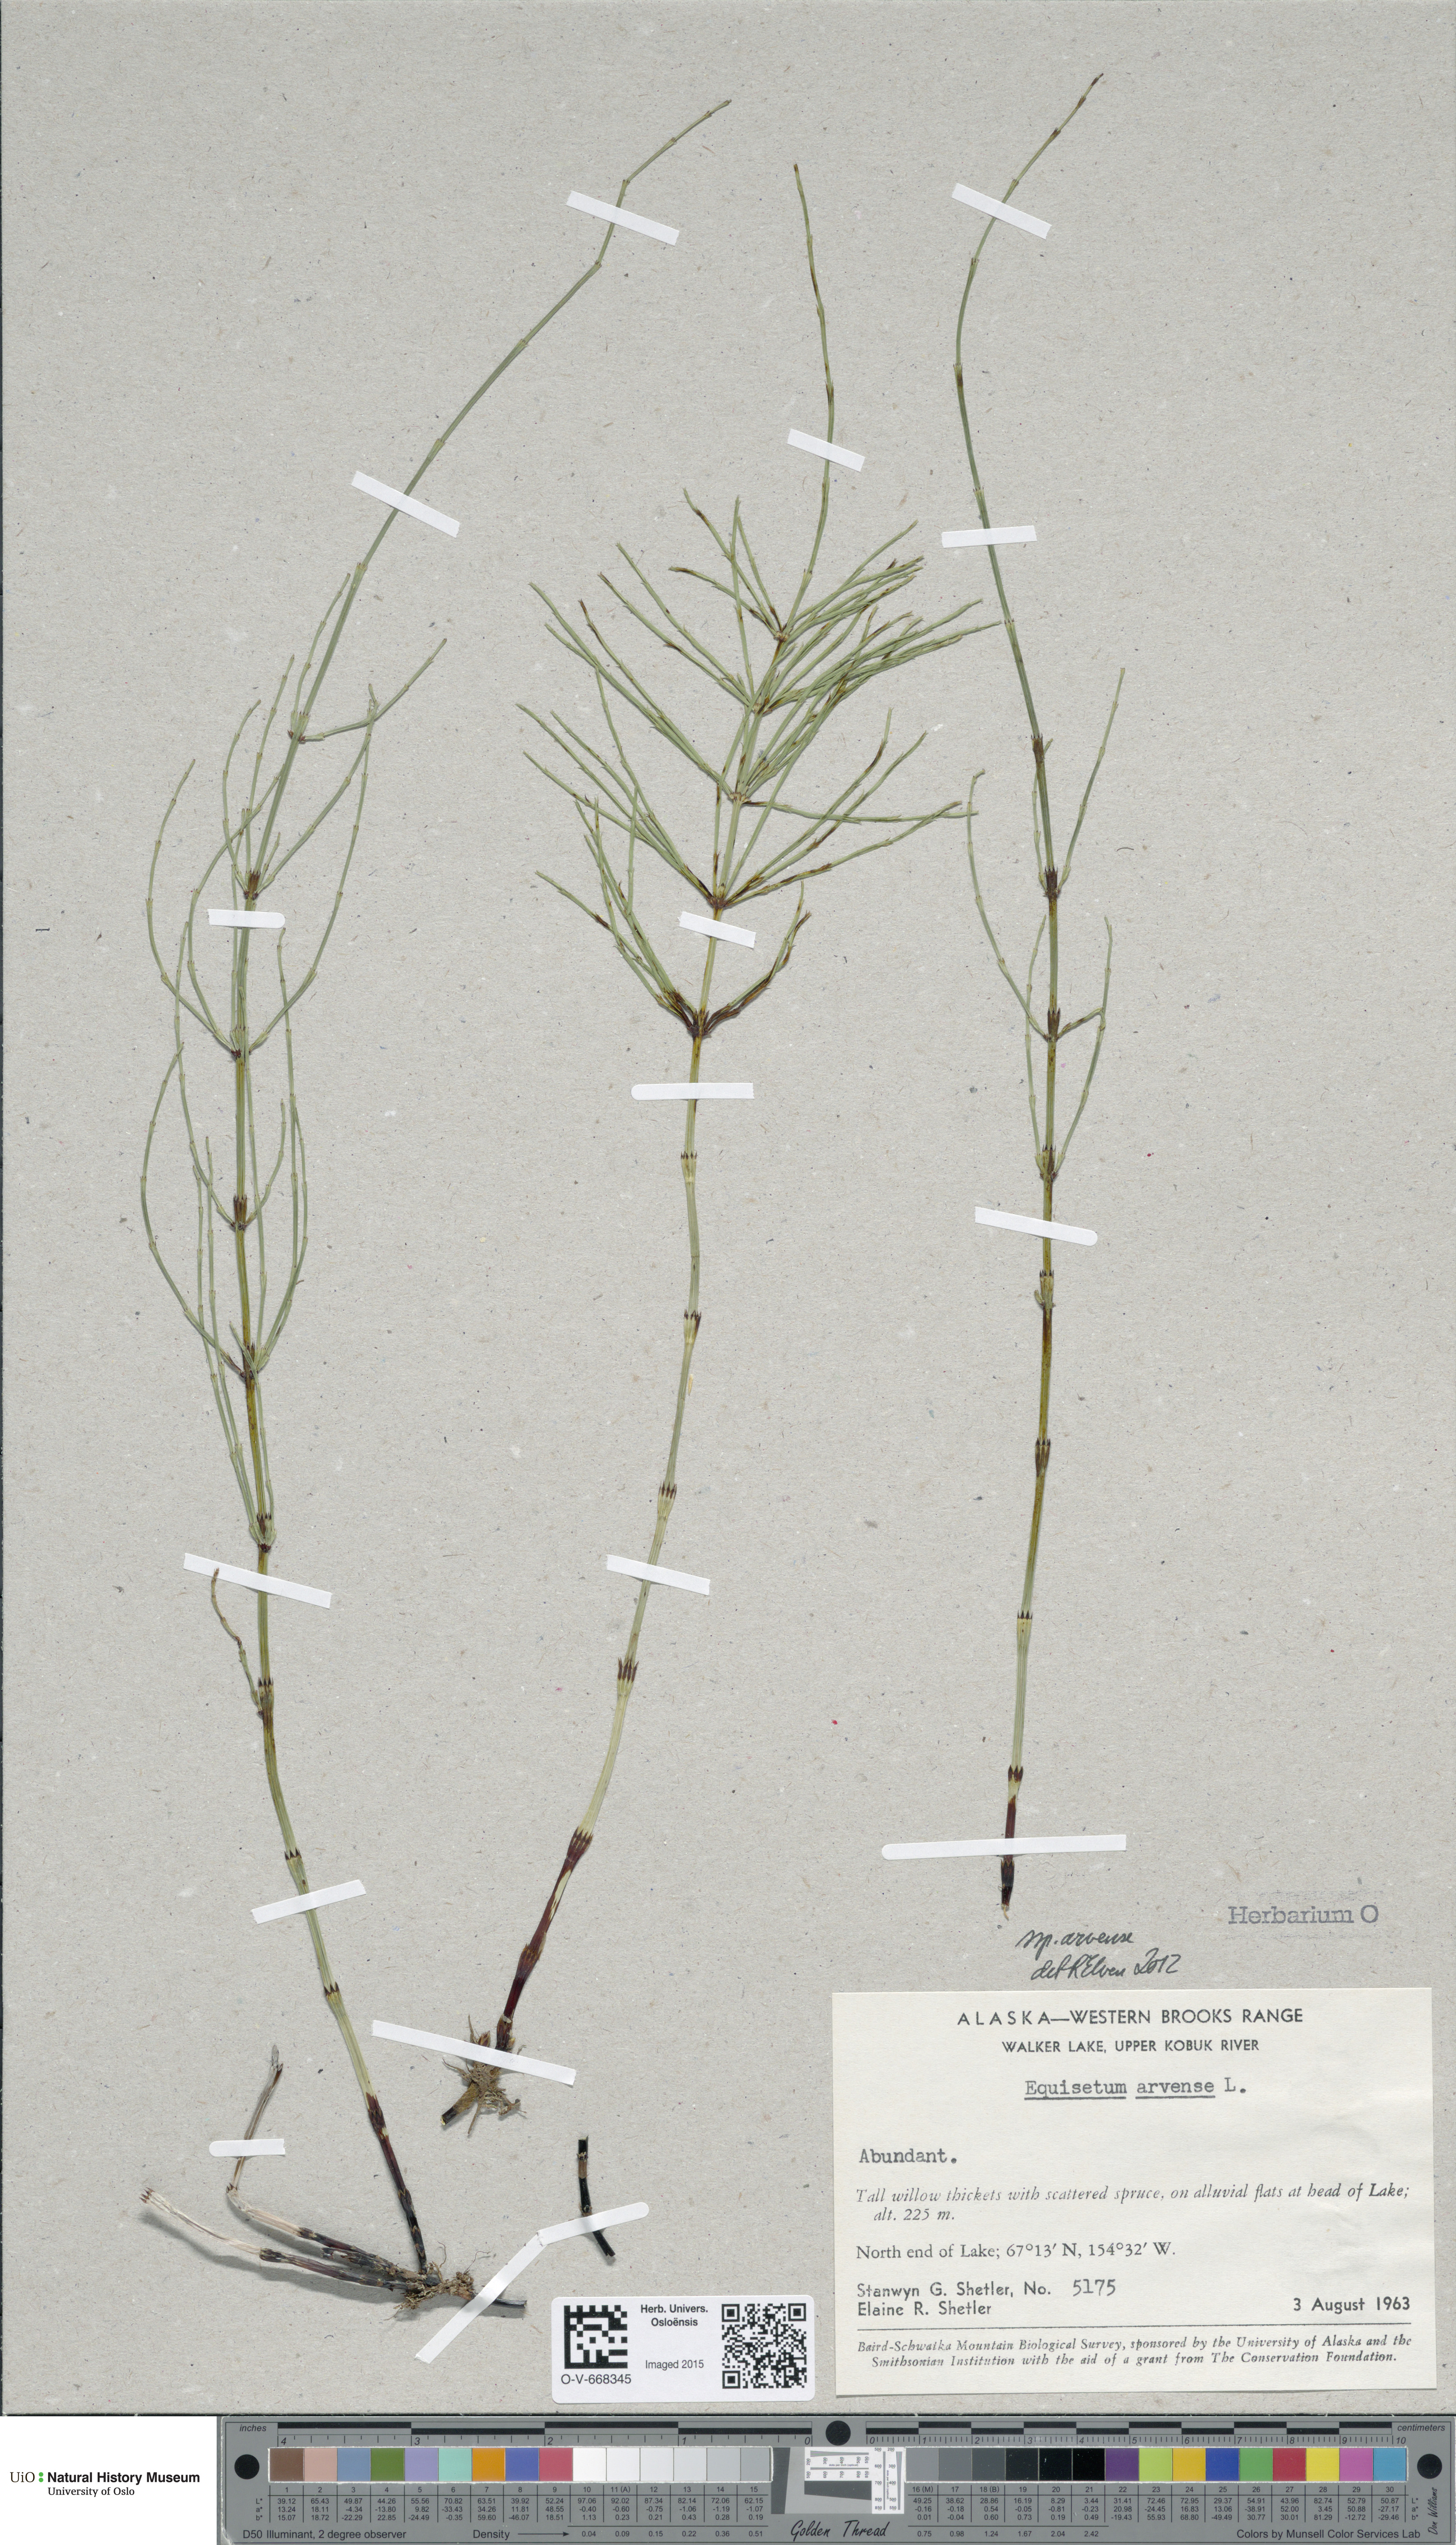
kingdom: Plantae
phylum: Tracheophyta
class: Polypodiopsida
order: Equisetales
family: Equisetaceae
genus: Equisetum
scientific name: Equisetum arvense
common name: Field horsetail
